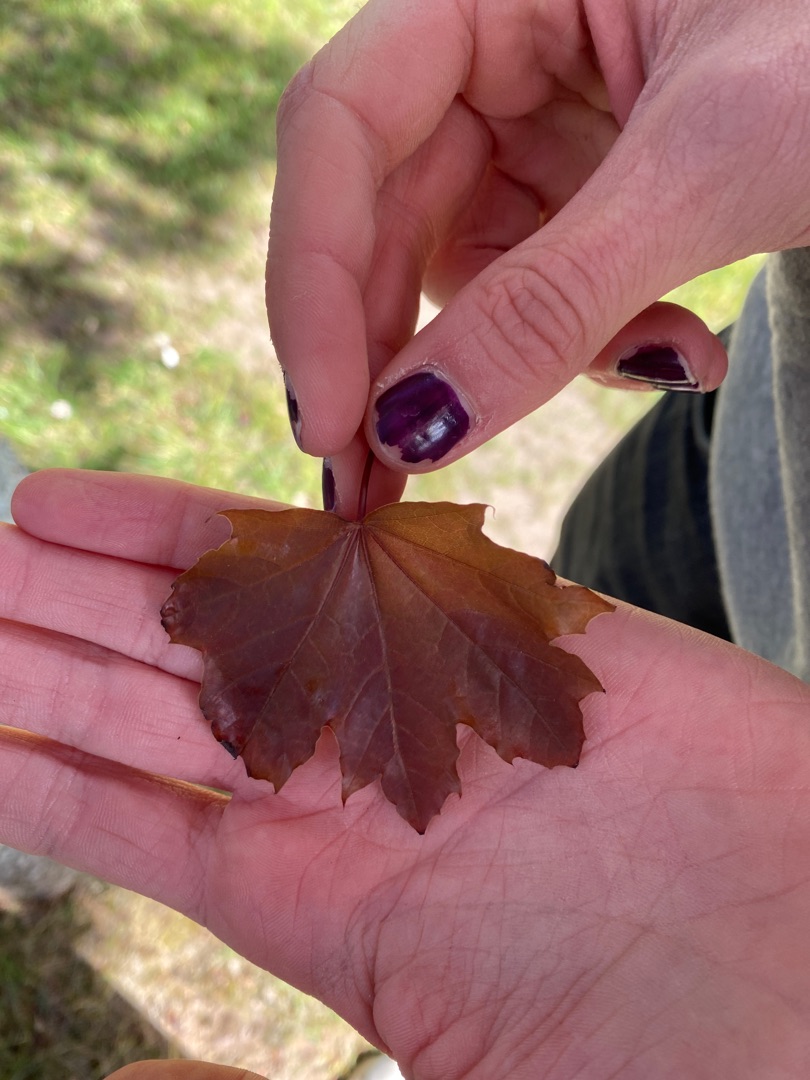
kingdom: Plantae
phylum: Tracheophyta
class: Magnoliopsida
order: Sapindales
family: Sapindaceae
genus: Acer
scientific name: Acer platanoides
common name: Spids-løn
